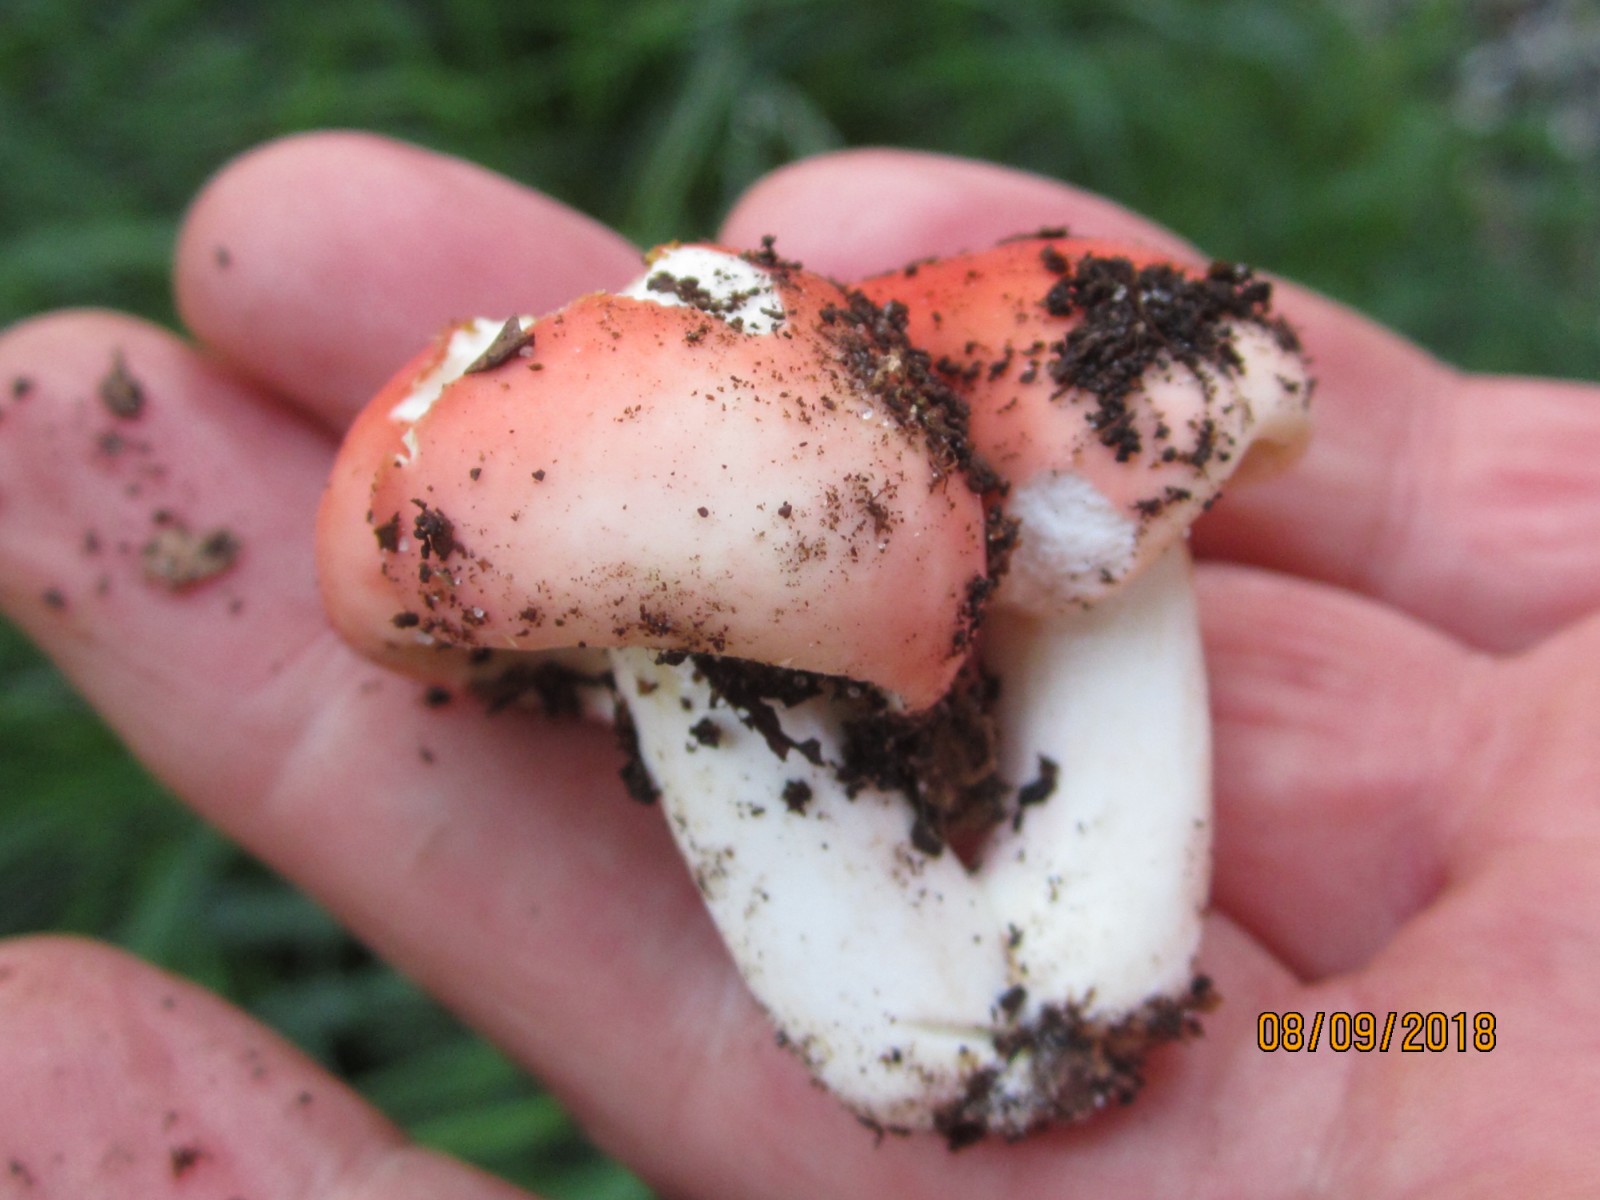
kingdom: Fungi
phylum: Basidiomycota
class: Agaricomycetes
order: Russulales
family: Russulaceae
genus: Russula
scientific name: Russula rosea
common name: fastkødet skørhat
